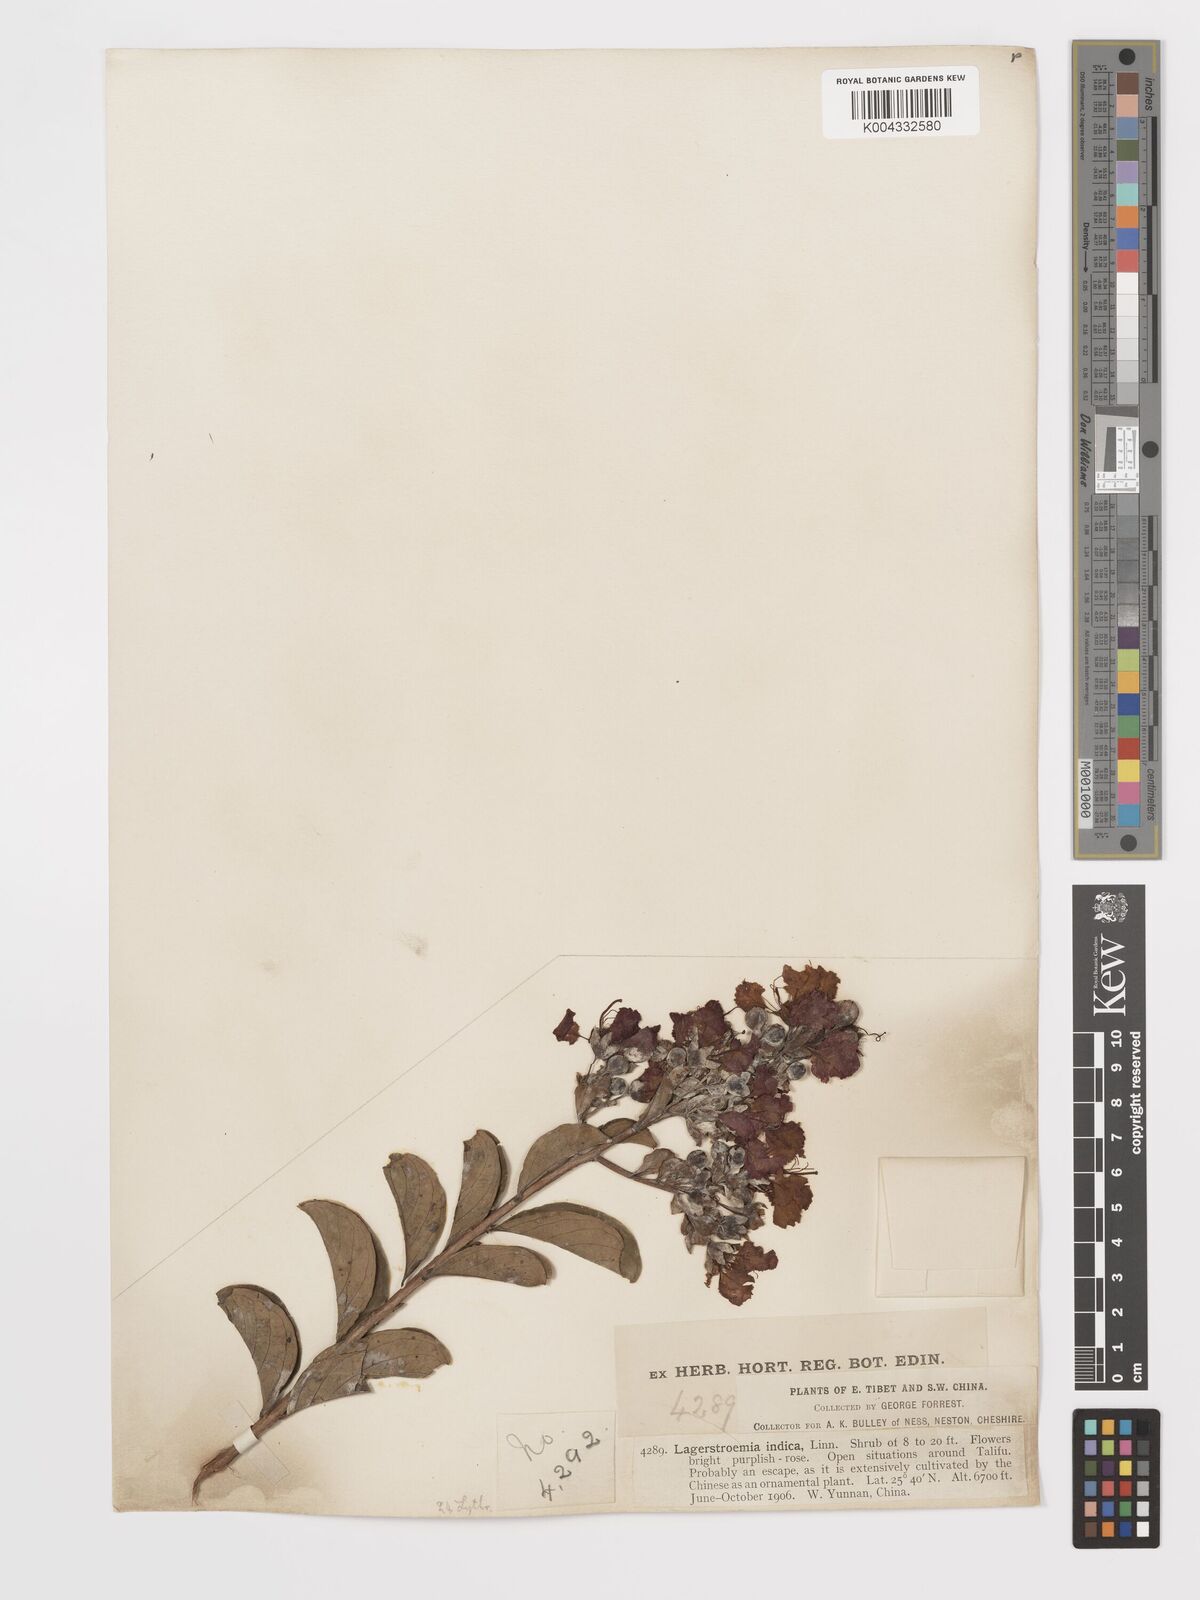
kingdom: Plantae
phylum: Tracheophyta
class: Magnoliopsida
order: Myrtales
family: Lythraceae
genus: Lagerstroemia
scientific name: Lagerstroemia indica
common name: Crape-myrtle
